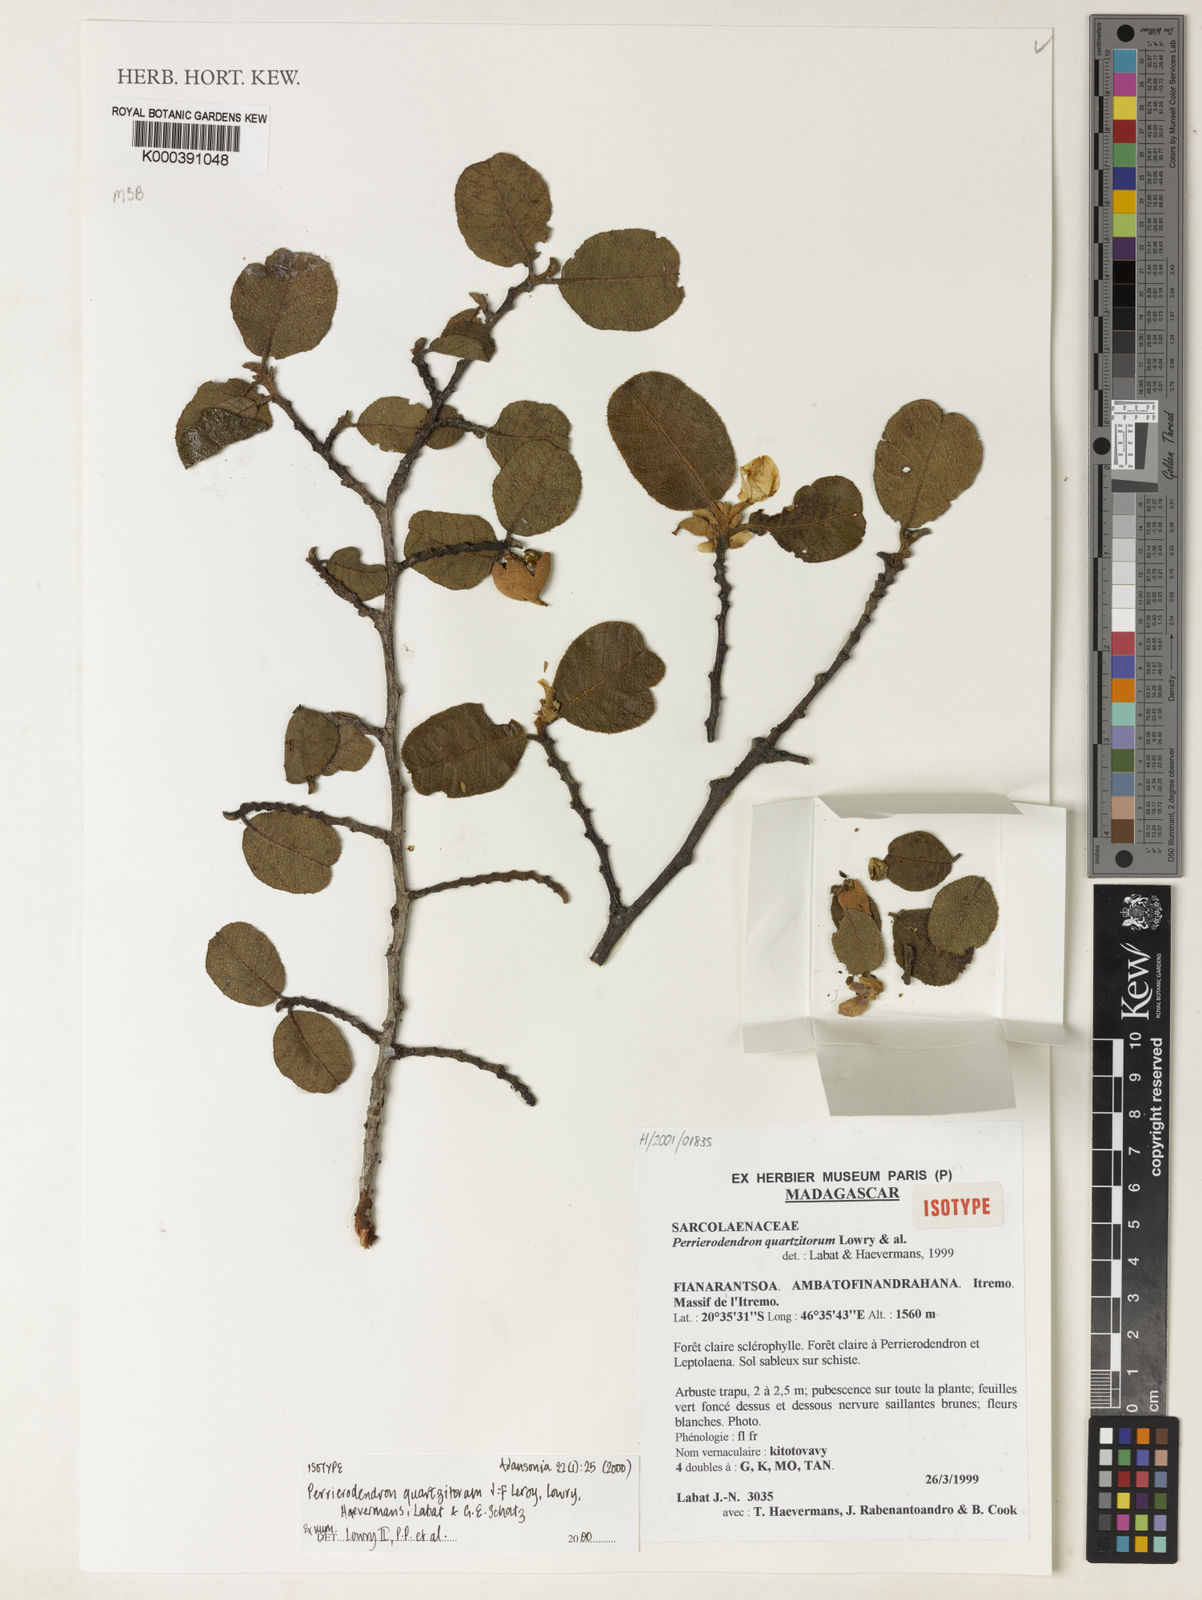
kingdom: Plantae
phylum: Tracheophyta
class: Magnoliopsida
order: Malvales
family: Sarcolaenaceae
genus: Perrierodendron
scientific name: Perrierodendron quartzitorum
